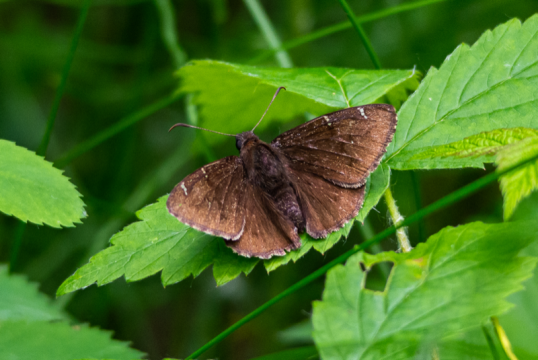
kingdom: Animalia
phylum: Arthropoda
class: Insecta
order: Lepidoptera
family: Hesperiidae
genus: Autochton
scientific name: Autochton
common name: Northern Cloudywing
